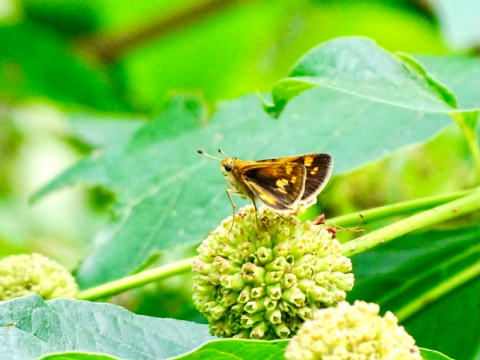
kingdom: Animalia
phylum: Arthropoda
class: Insecta
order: Lepidoptera
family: Hesperiidae
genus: Polites
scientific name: Polites coras
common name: Peck's Skipper
